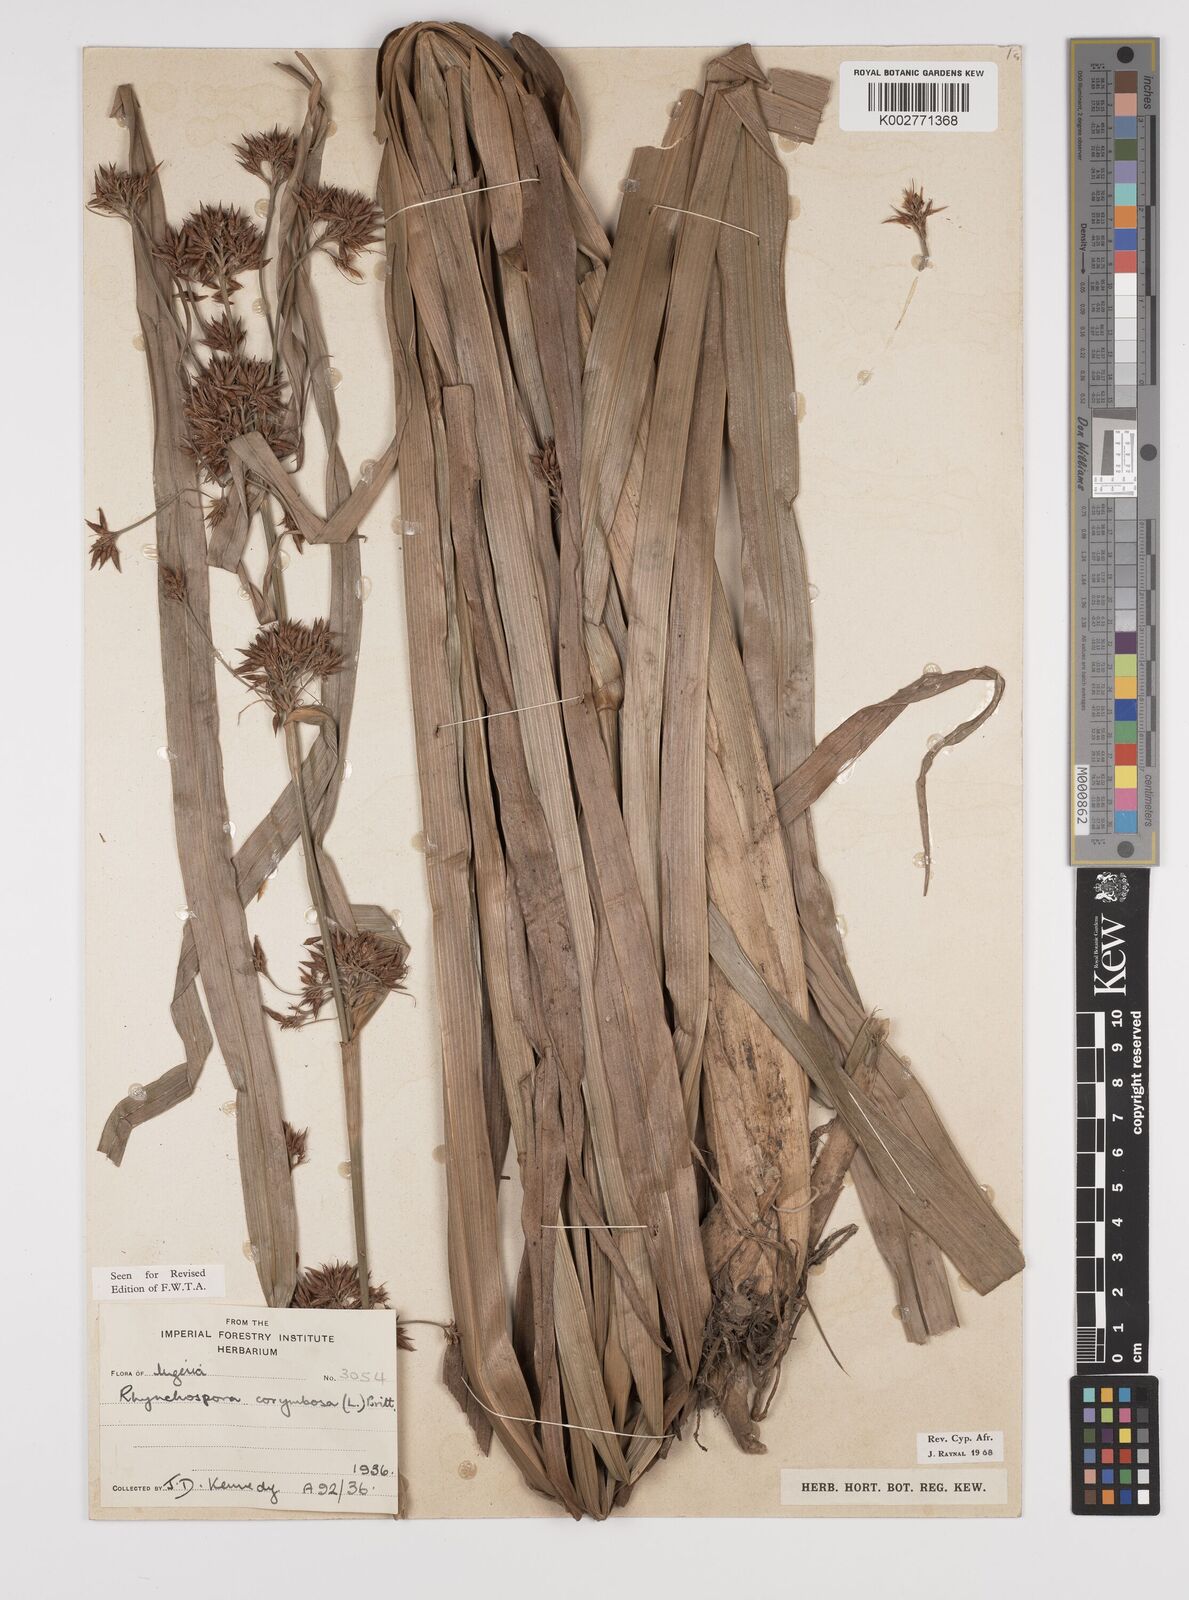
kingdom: Plantae
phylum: Tracheophyta
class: Liliopsida
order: Poales
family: Cyperaceae
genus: Rhynchospora
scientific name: Rhynchospora corymbosa
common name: Golden beak sedge
